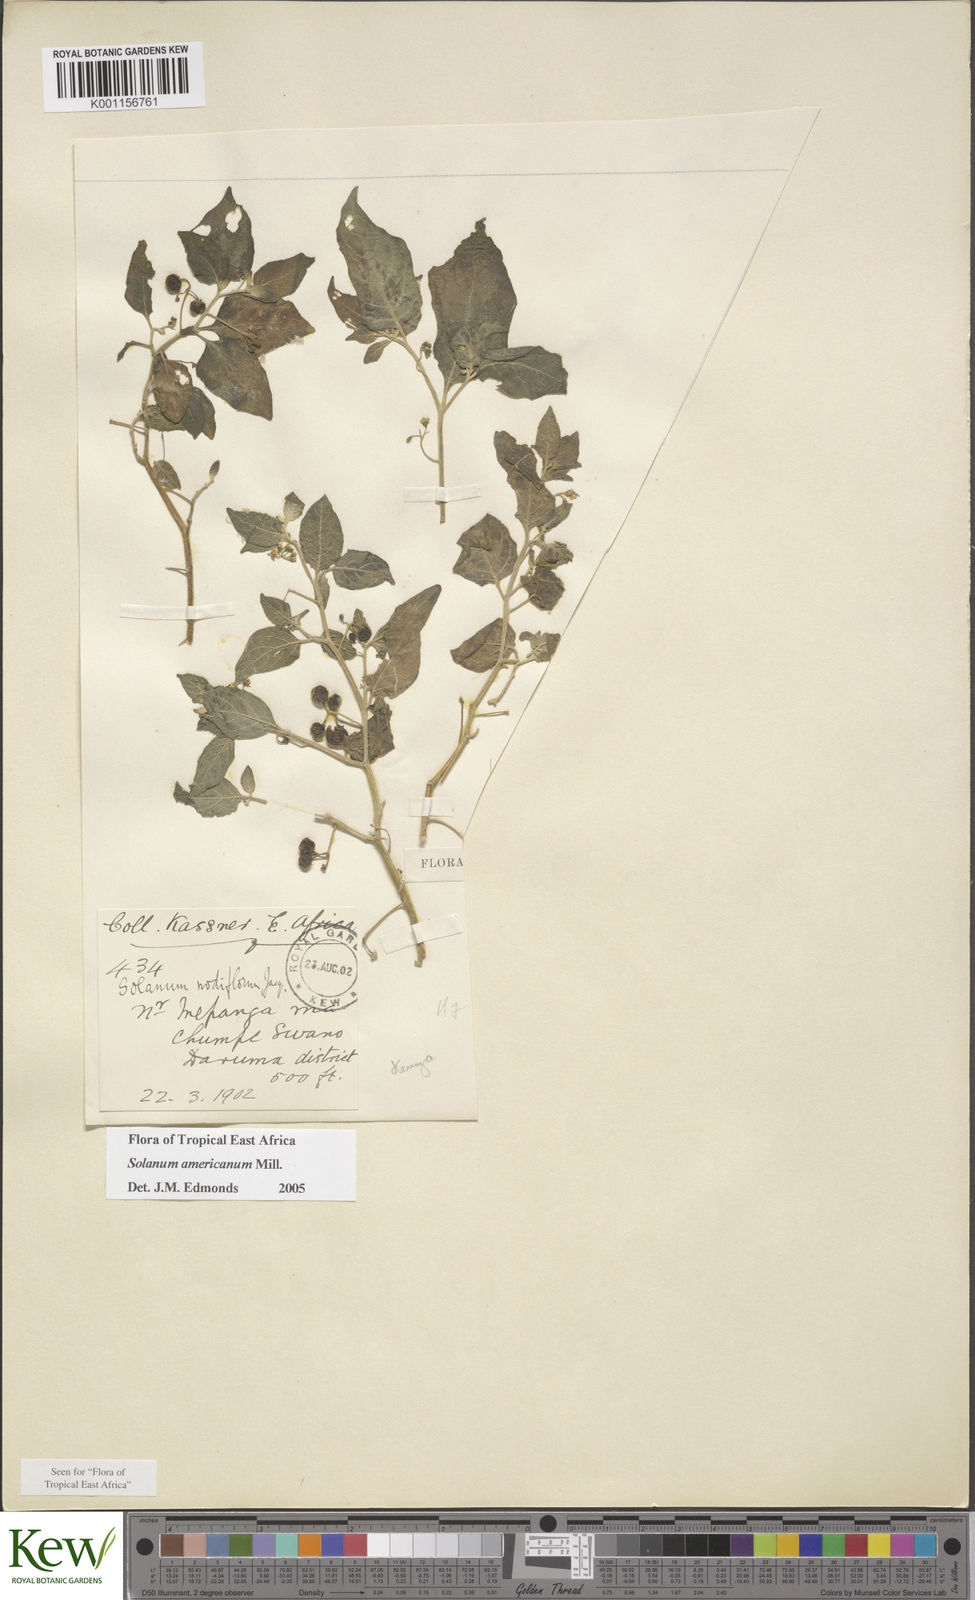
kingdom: Plantae
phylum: Tracheophyta
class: Magnoliopsida
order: Solanales
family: Solanaceae
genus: Solanum
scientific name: Solanum americanum
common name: American black nightshade
